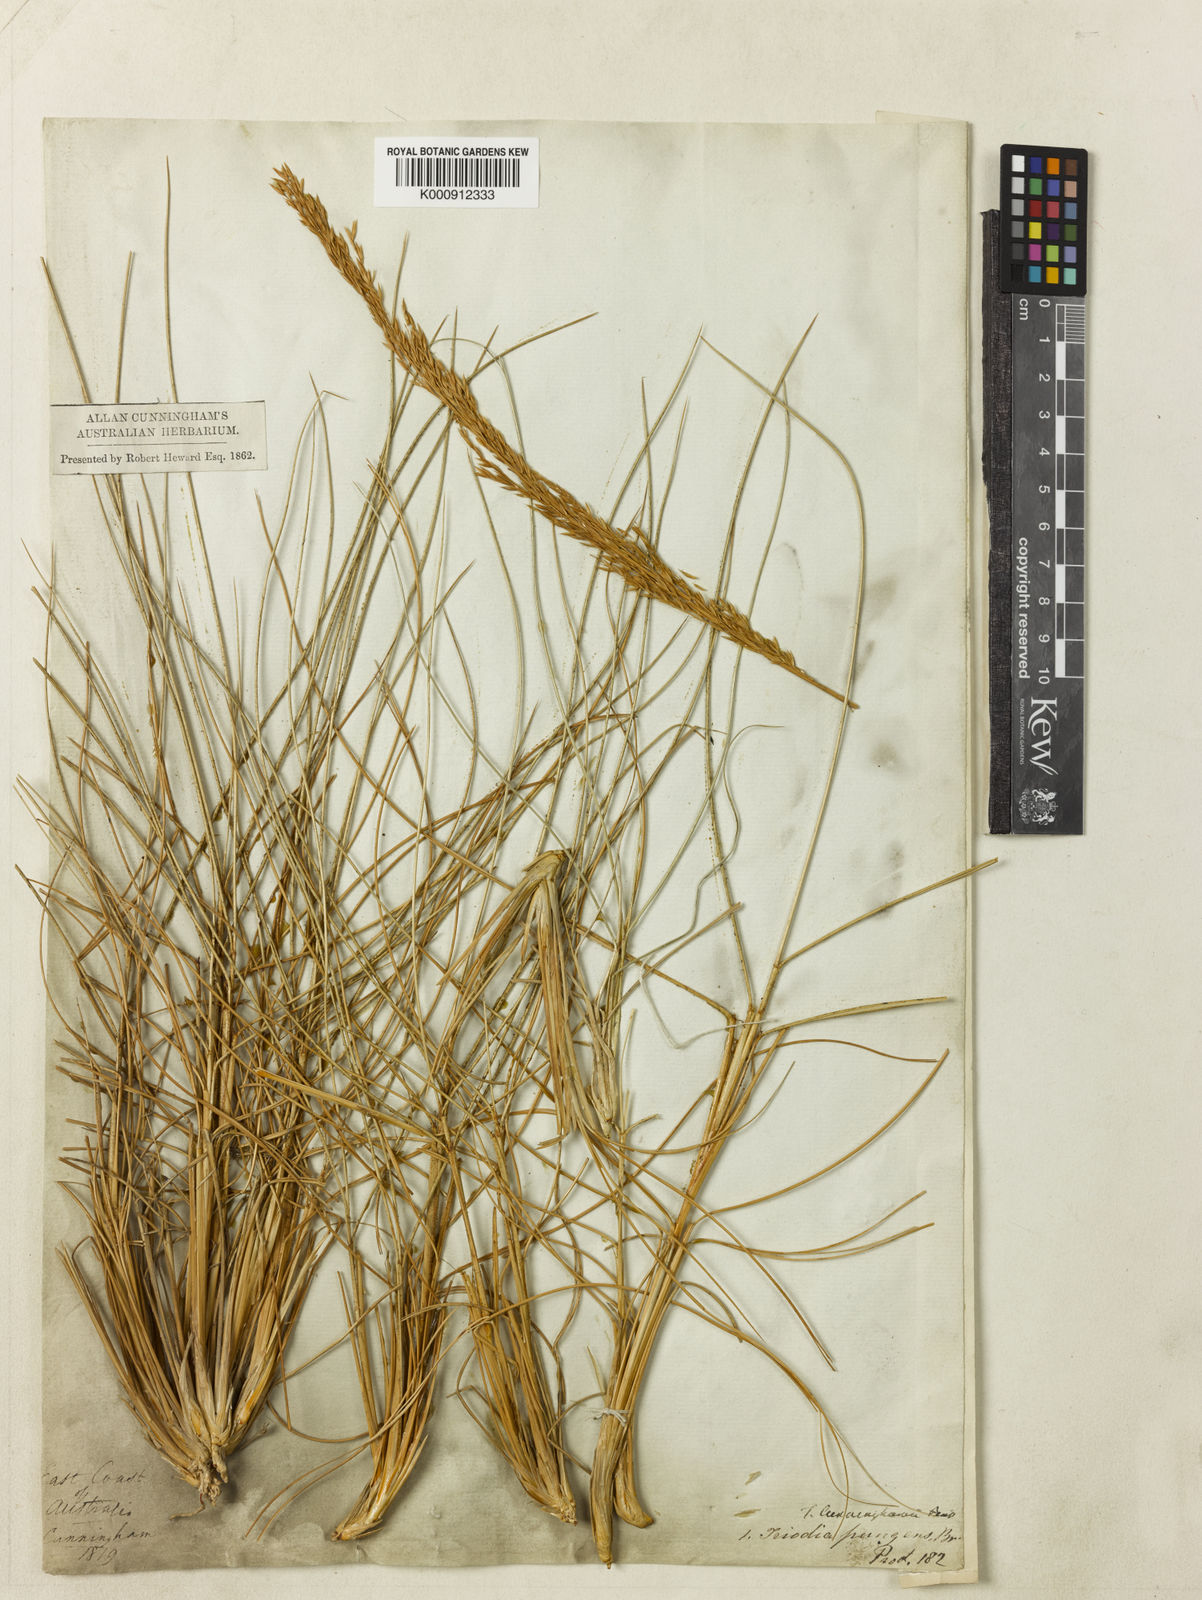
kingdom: Plantae
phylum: Tracheophyta
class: Liliopsida
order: Poales
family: Poaceae
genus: Triodia
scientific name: Triodia cunninghamii
